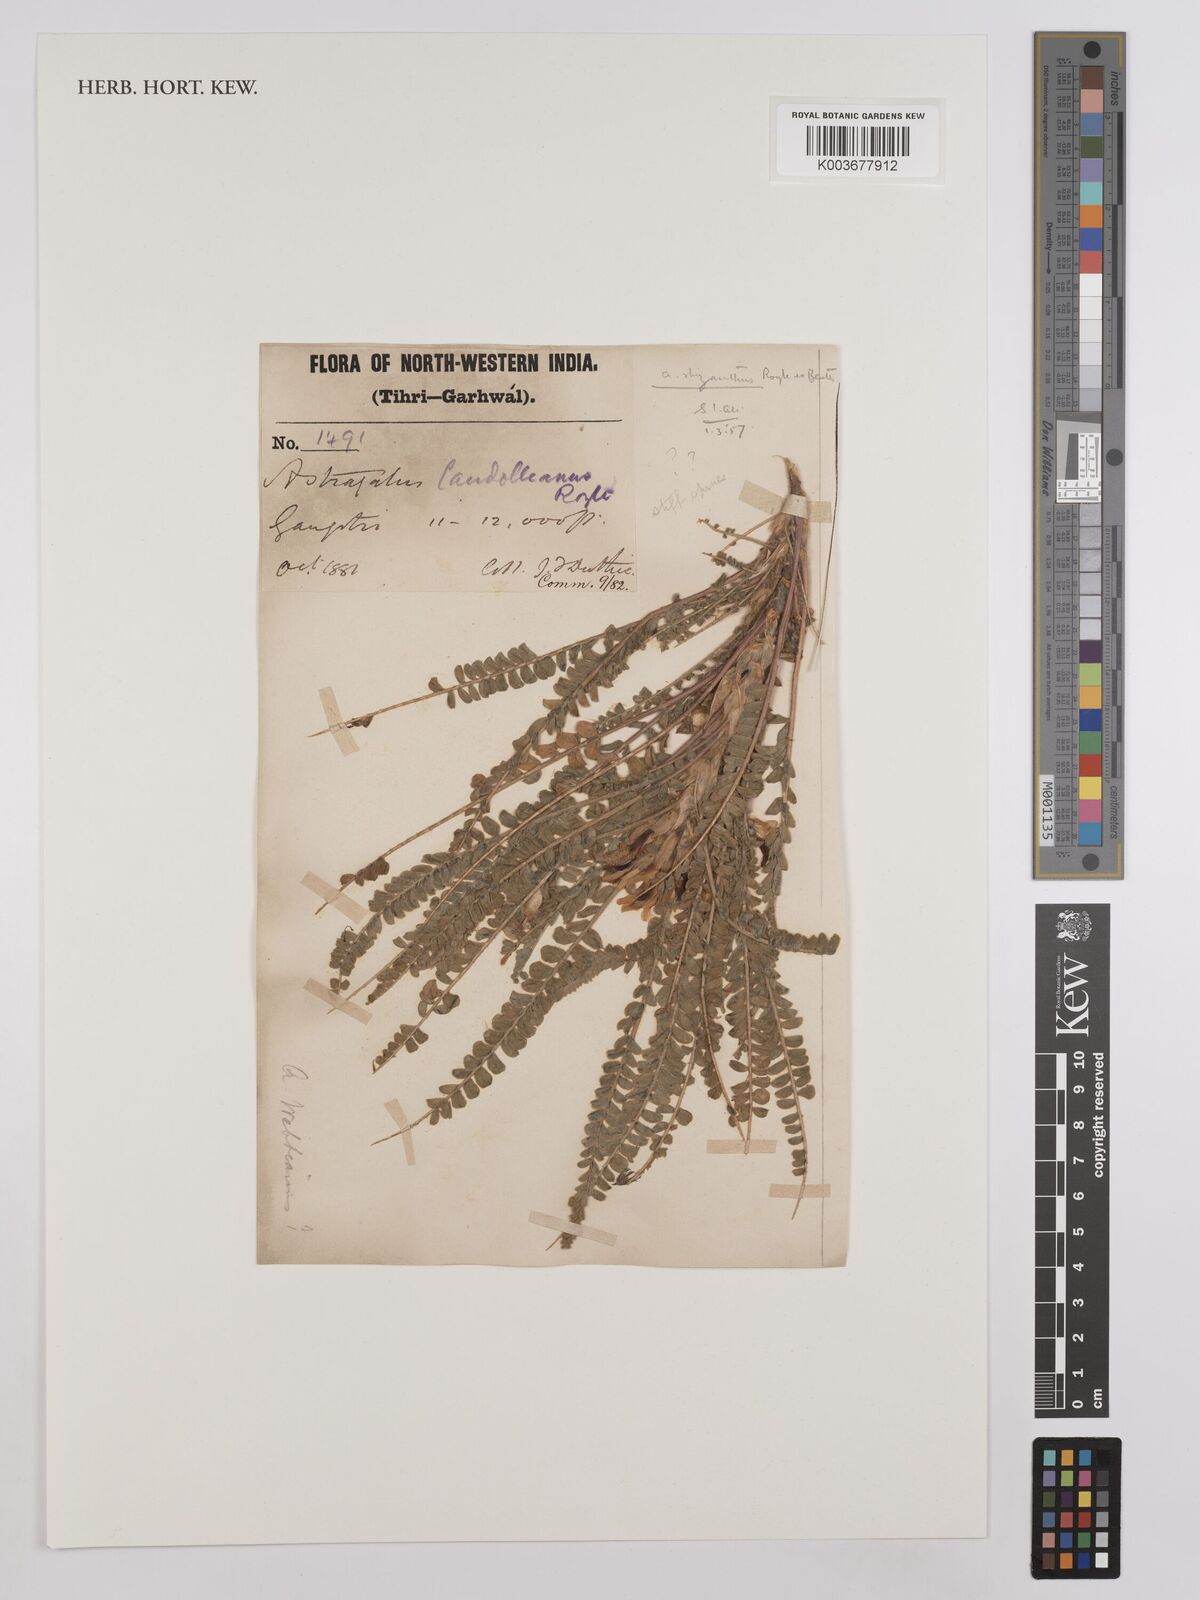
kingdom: Plantae
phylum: Tracheophyta
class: Magnoliopsida
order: Fabales
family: Fabaceae
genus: Astragalus
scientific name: Astragalus rhizanthus
